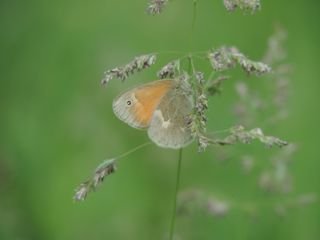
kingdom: Animalia
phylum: Arthropoda
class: Insecta
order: Lepidoptera
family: Nymphalidae
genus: Coenonympha
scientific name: Coenonympha tullia
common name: Large Heath
